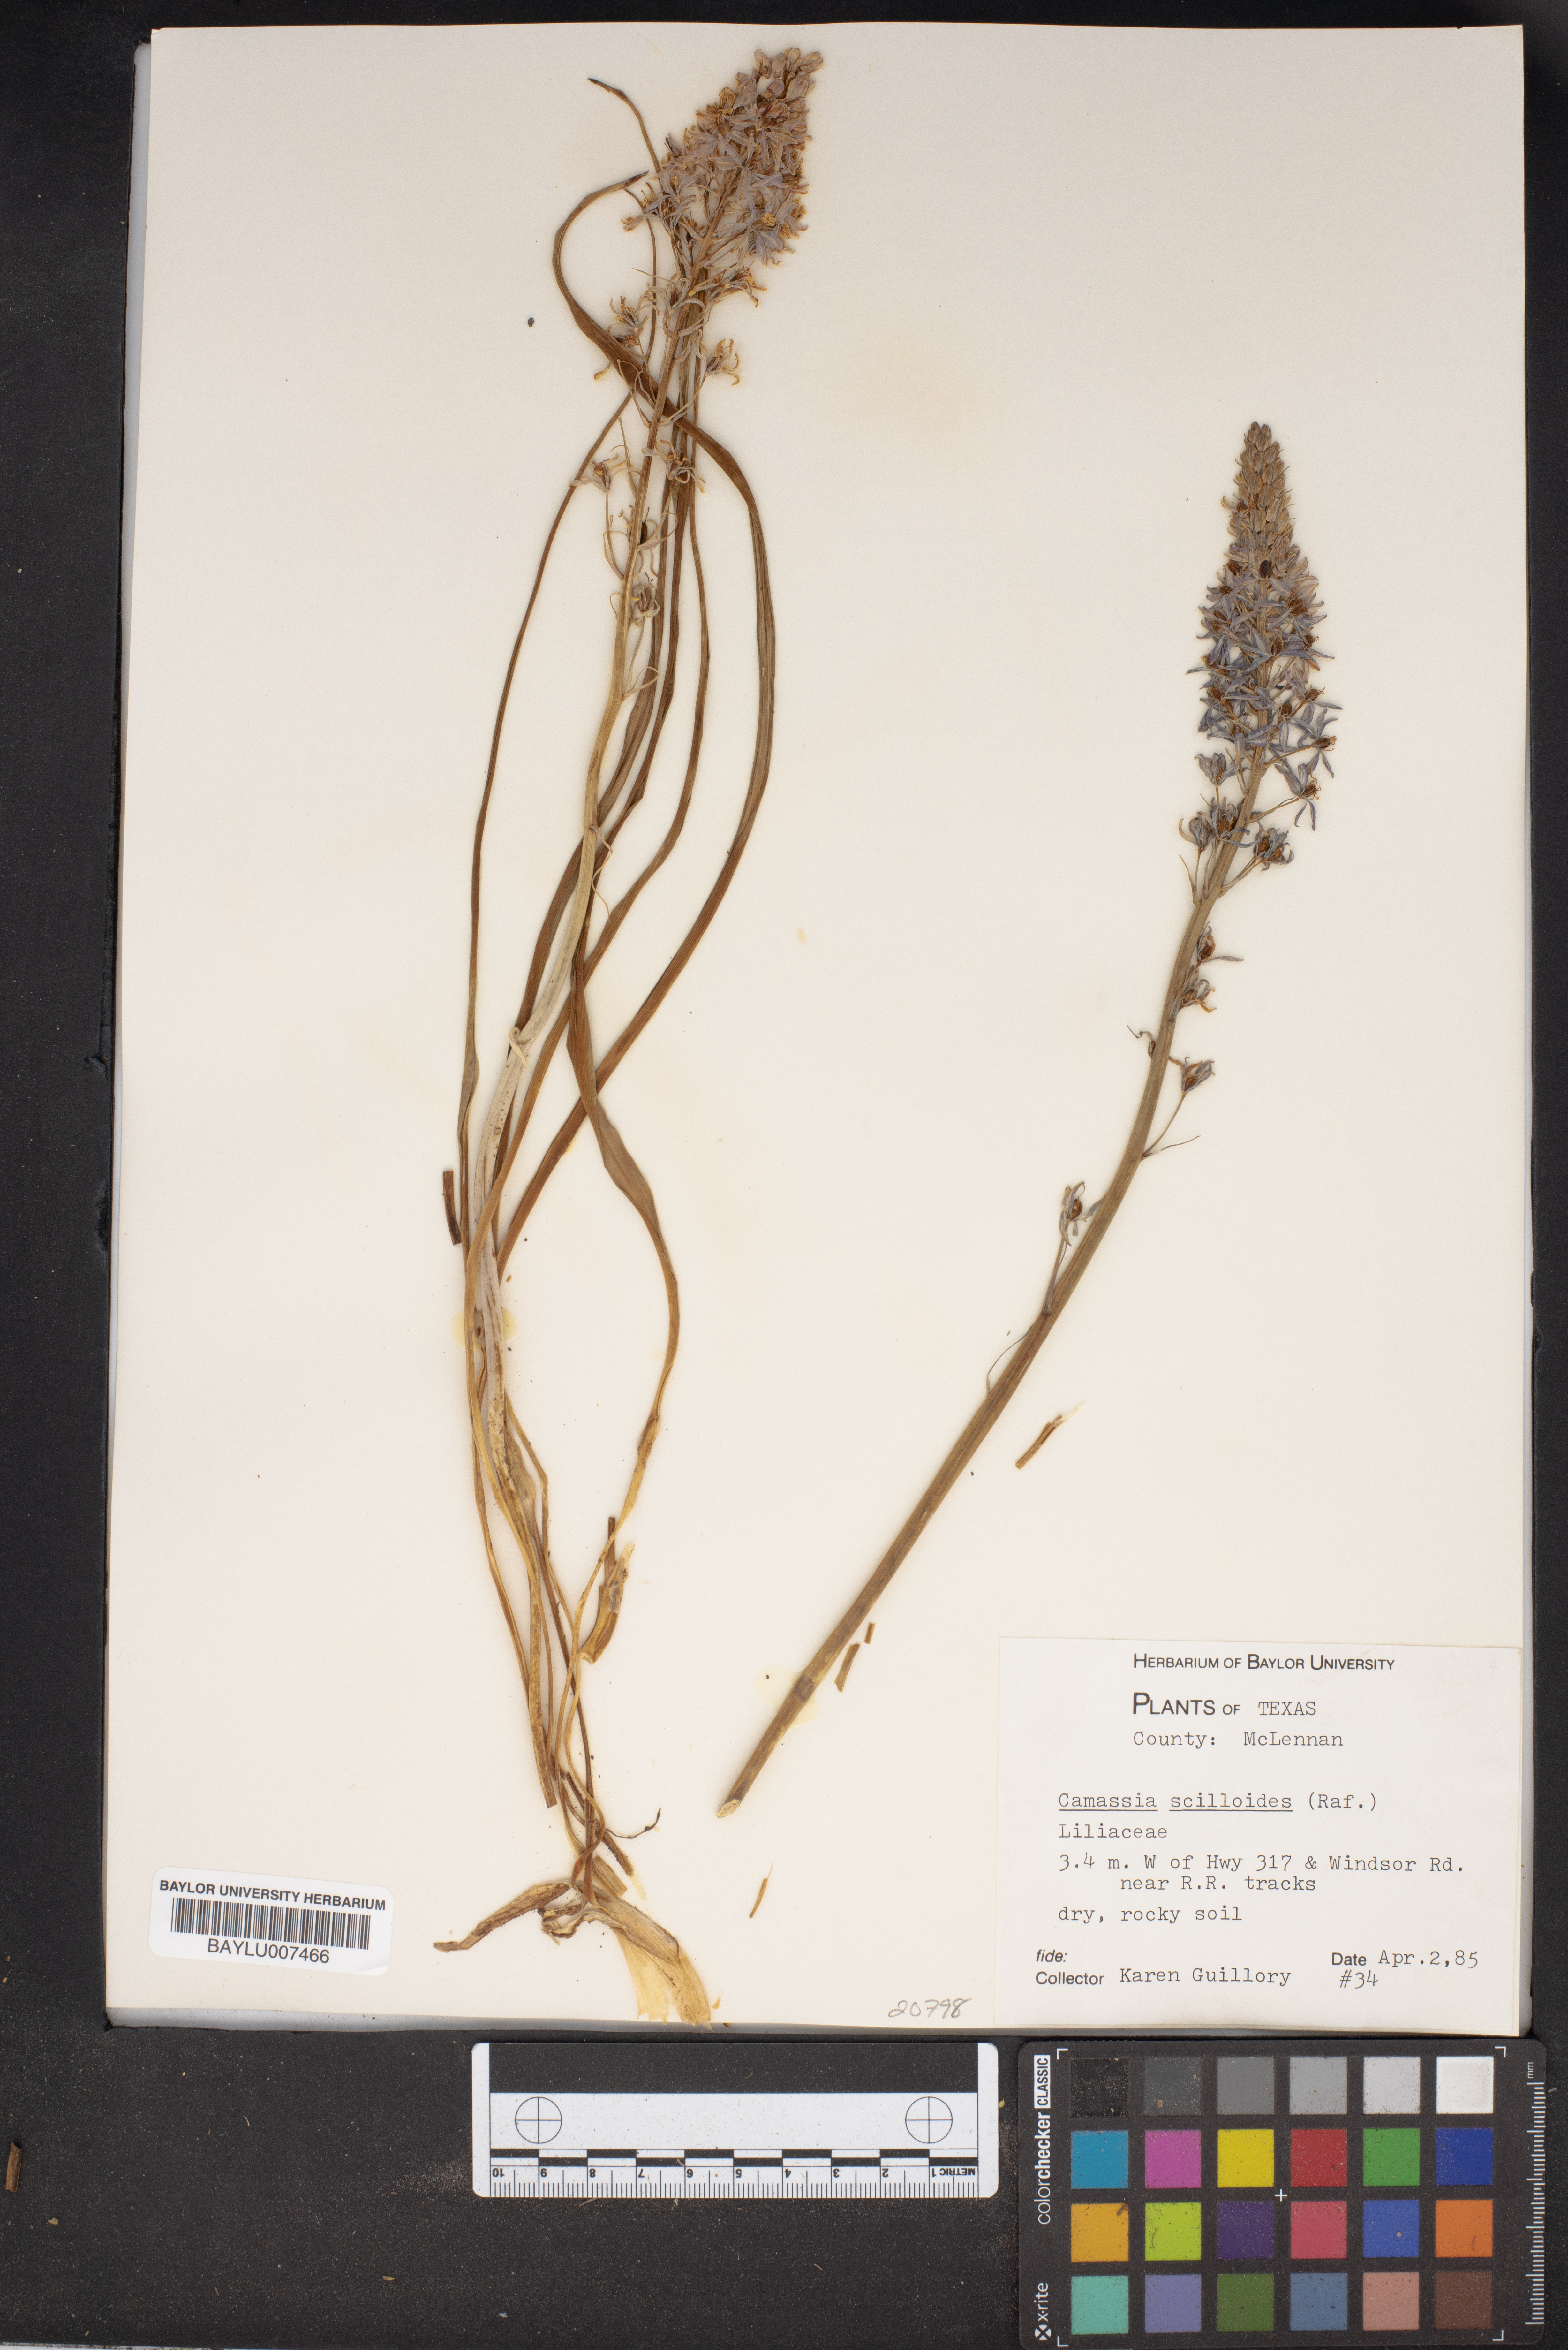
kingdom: Plantae
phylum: Tracheophyta
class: Liliopsida
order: Asparagales
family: Asparagaceae
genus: Camassia
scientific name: Camassia scilloides
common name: Wild hyacinth
